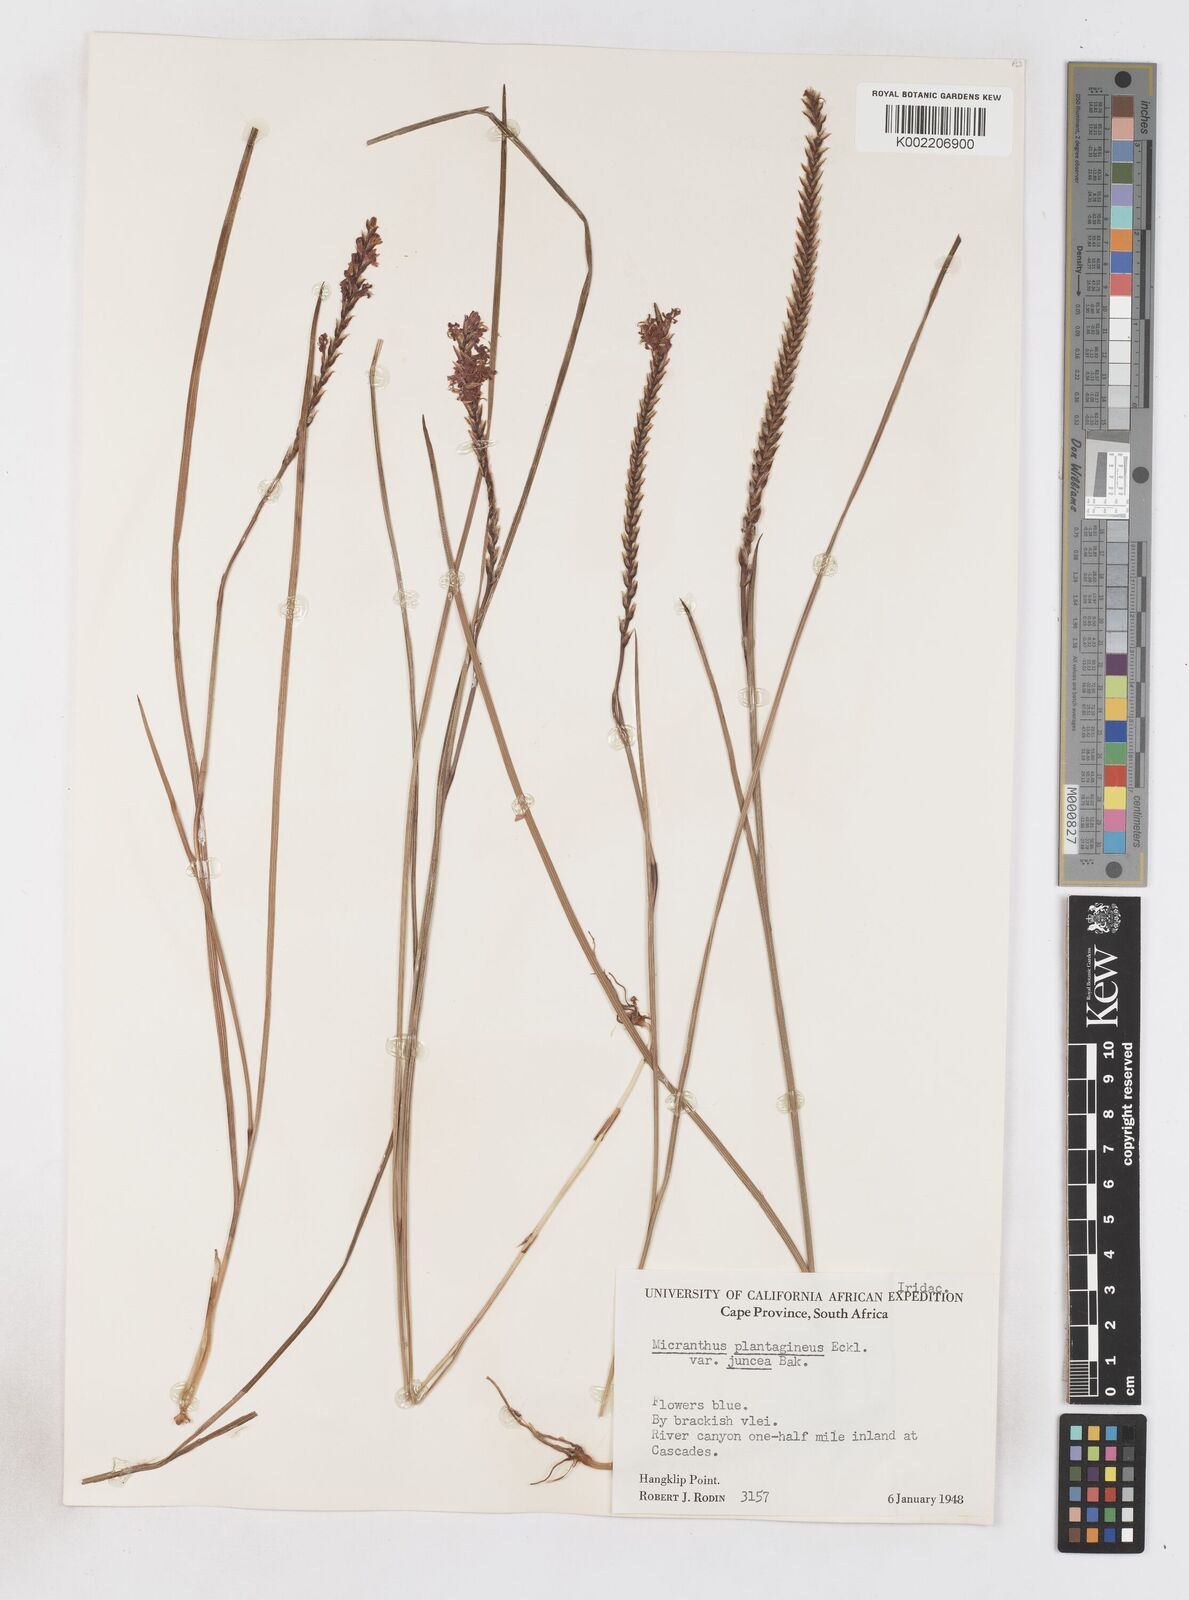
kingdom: Plantae
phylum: Tracheophyta
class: Liliopsida
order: Asparagales
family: Iridaceae
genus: Micranthus
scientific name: Micranthus plantagineus
